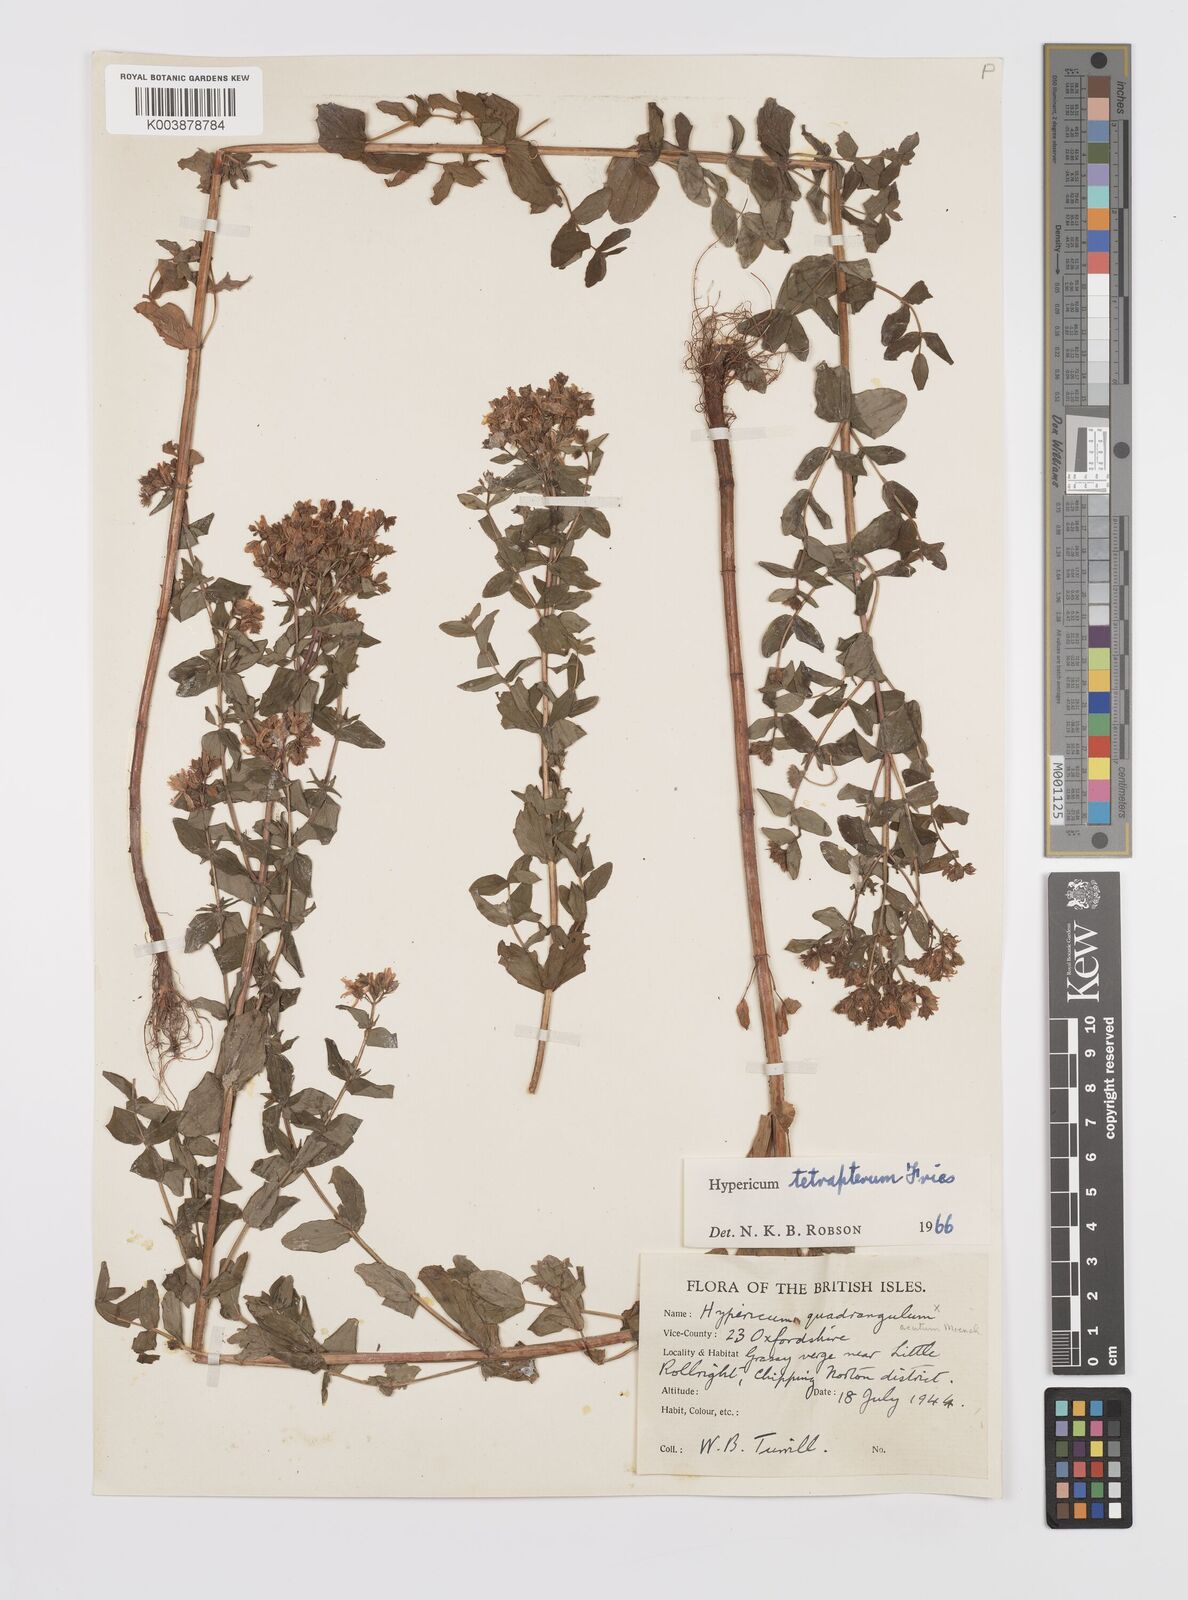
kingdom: Plantae
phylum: Tracheophyta
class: Magnoliopsida
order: Malpighiales
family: Hypericaceae
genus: Hypericum
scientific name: Hypericum tetrapterum
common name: Square-stalked st. john's-wort
